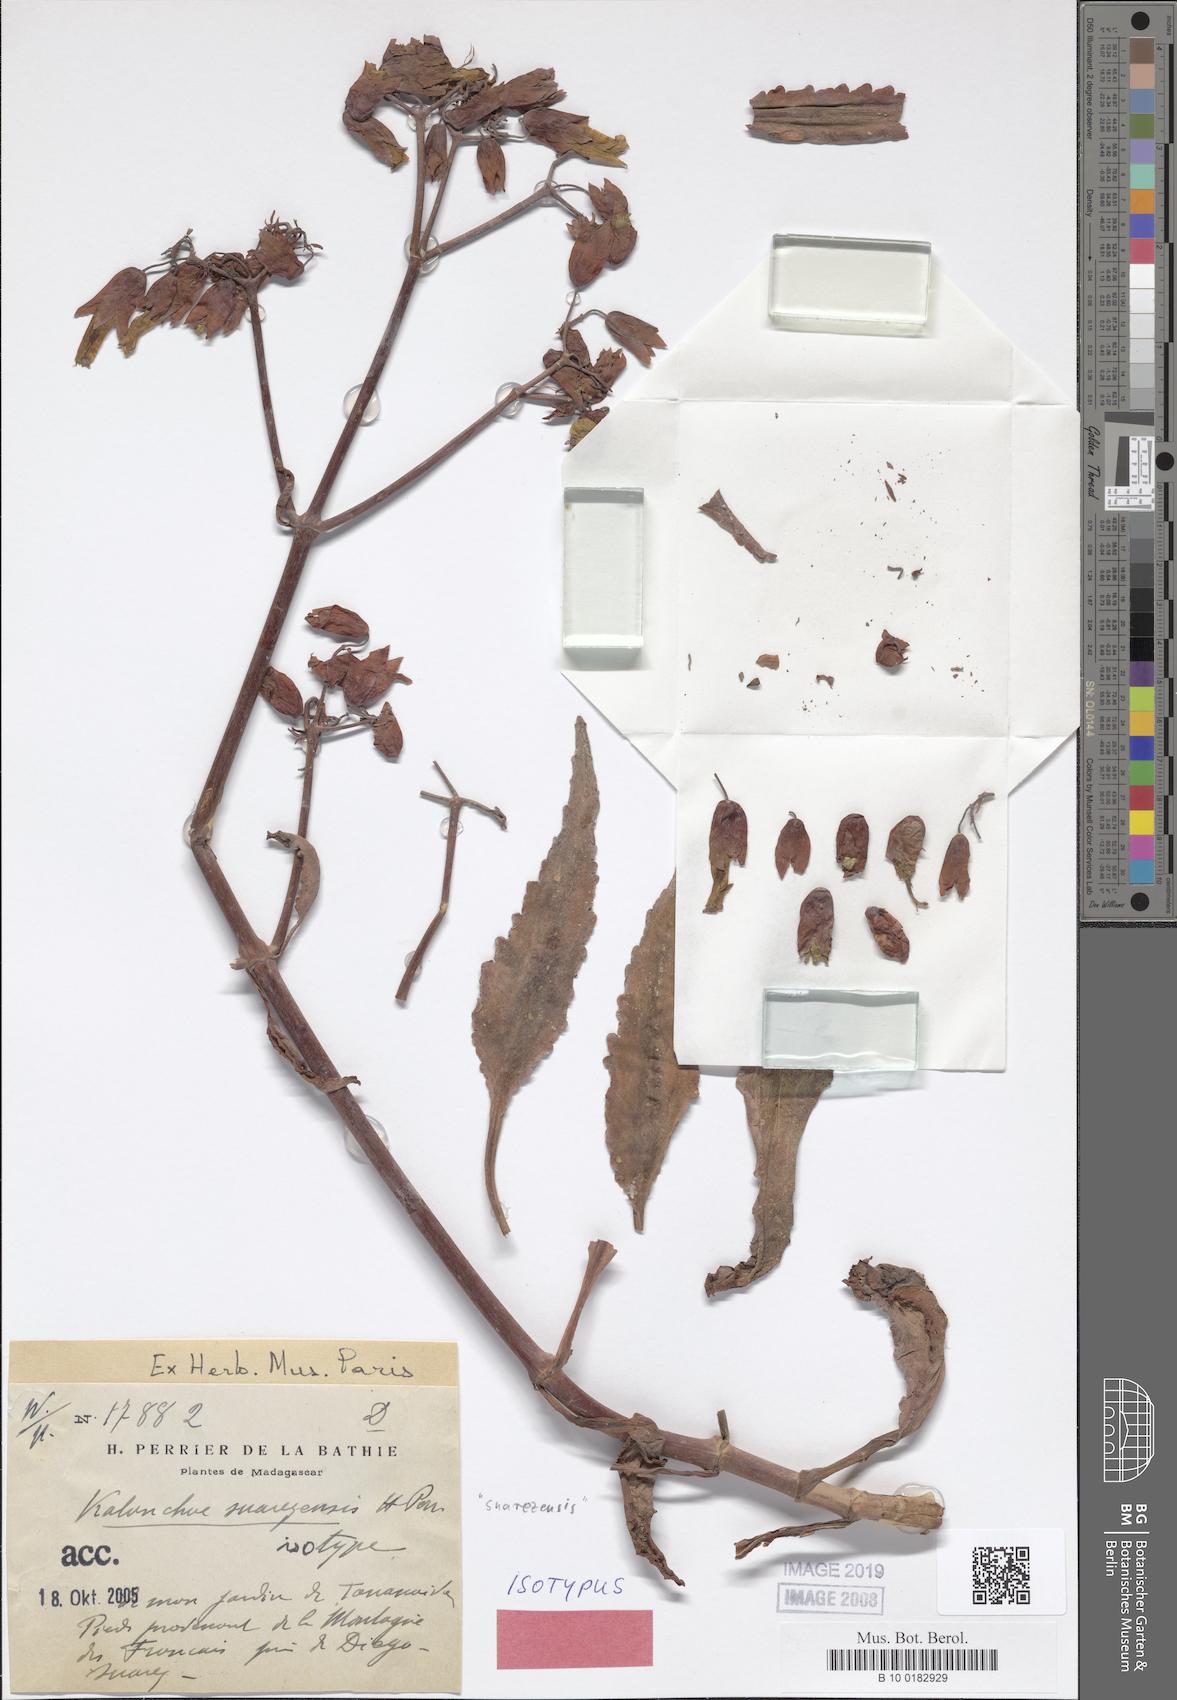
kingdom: Plantae
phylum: Tracheophyta
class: Magnoliopsida
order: Saxifragales
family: Crassulaceae
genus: Kalanchoe
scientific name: Kalanchoe suarezensis
